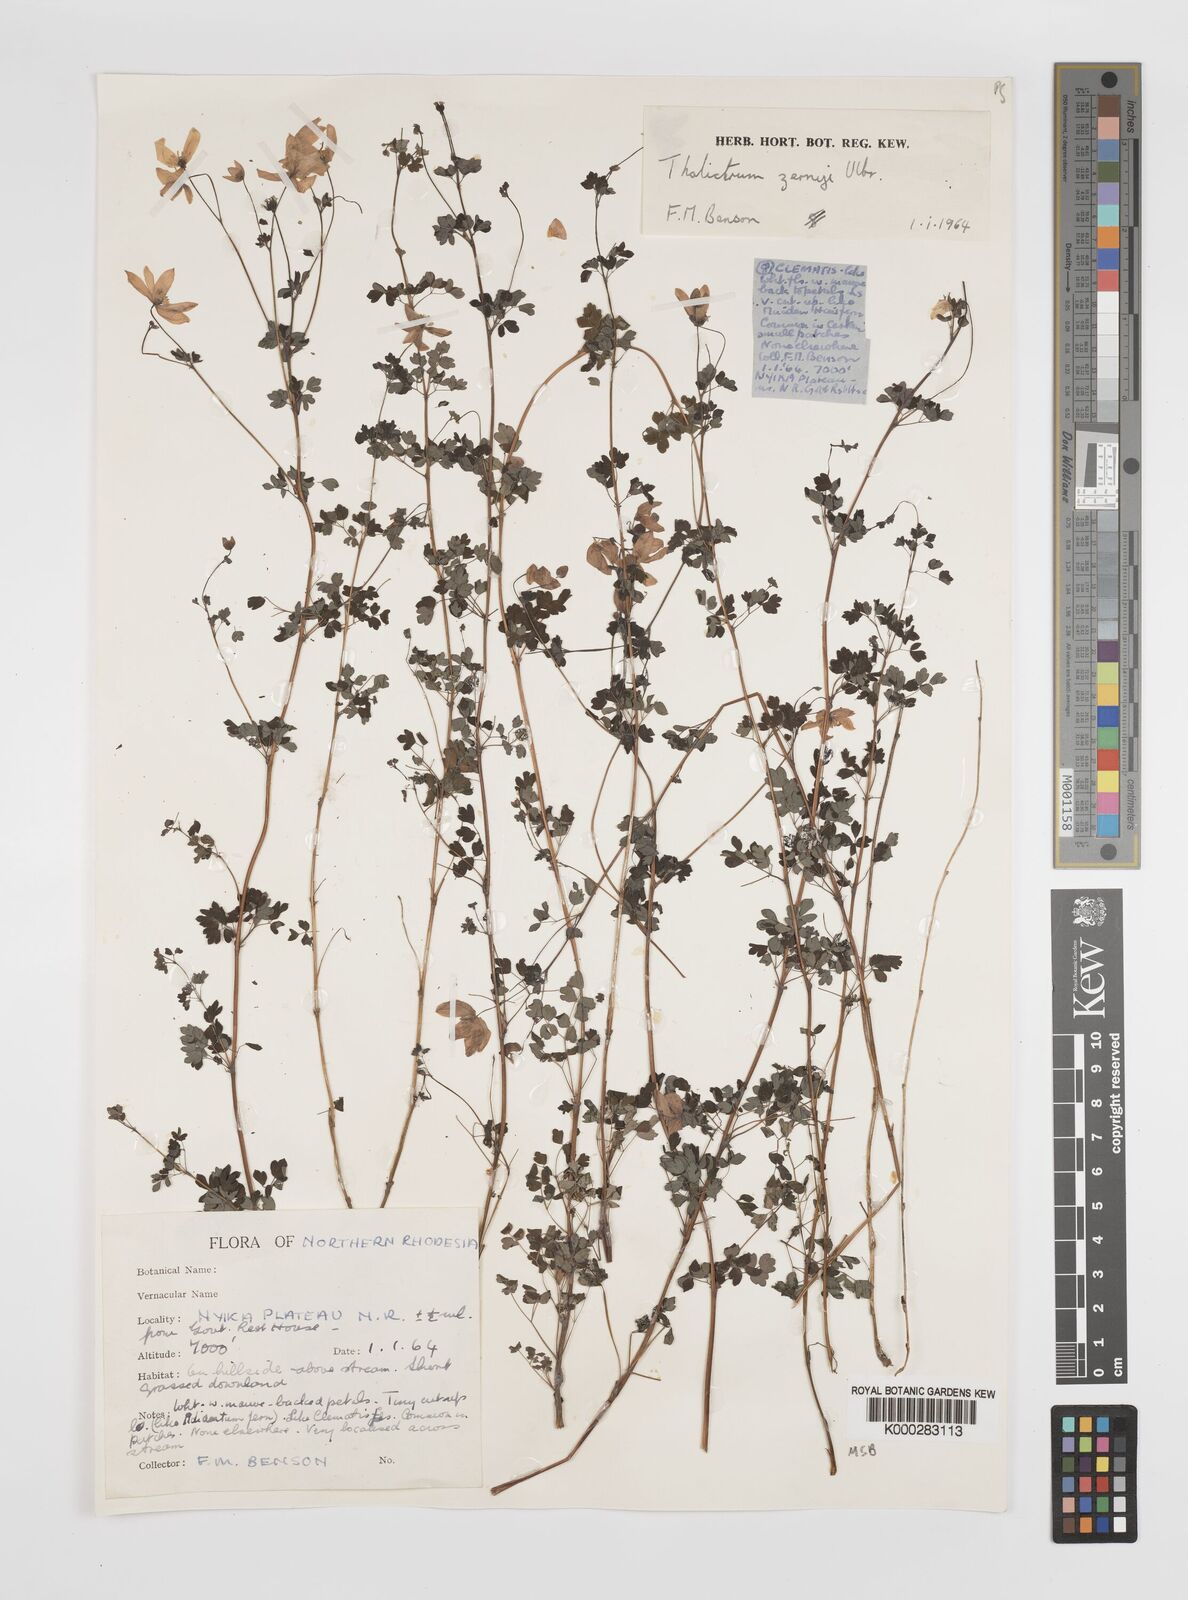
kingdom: Plantae
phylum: Tracheophyta
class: Magnoliopsida
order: Ranunculales
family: Ranunculaceae
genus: Thalictrum
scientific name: Thalictrum zernyi
